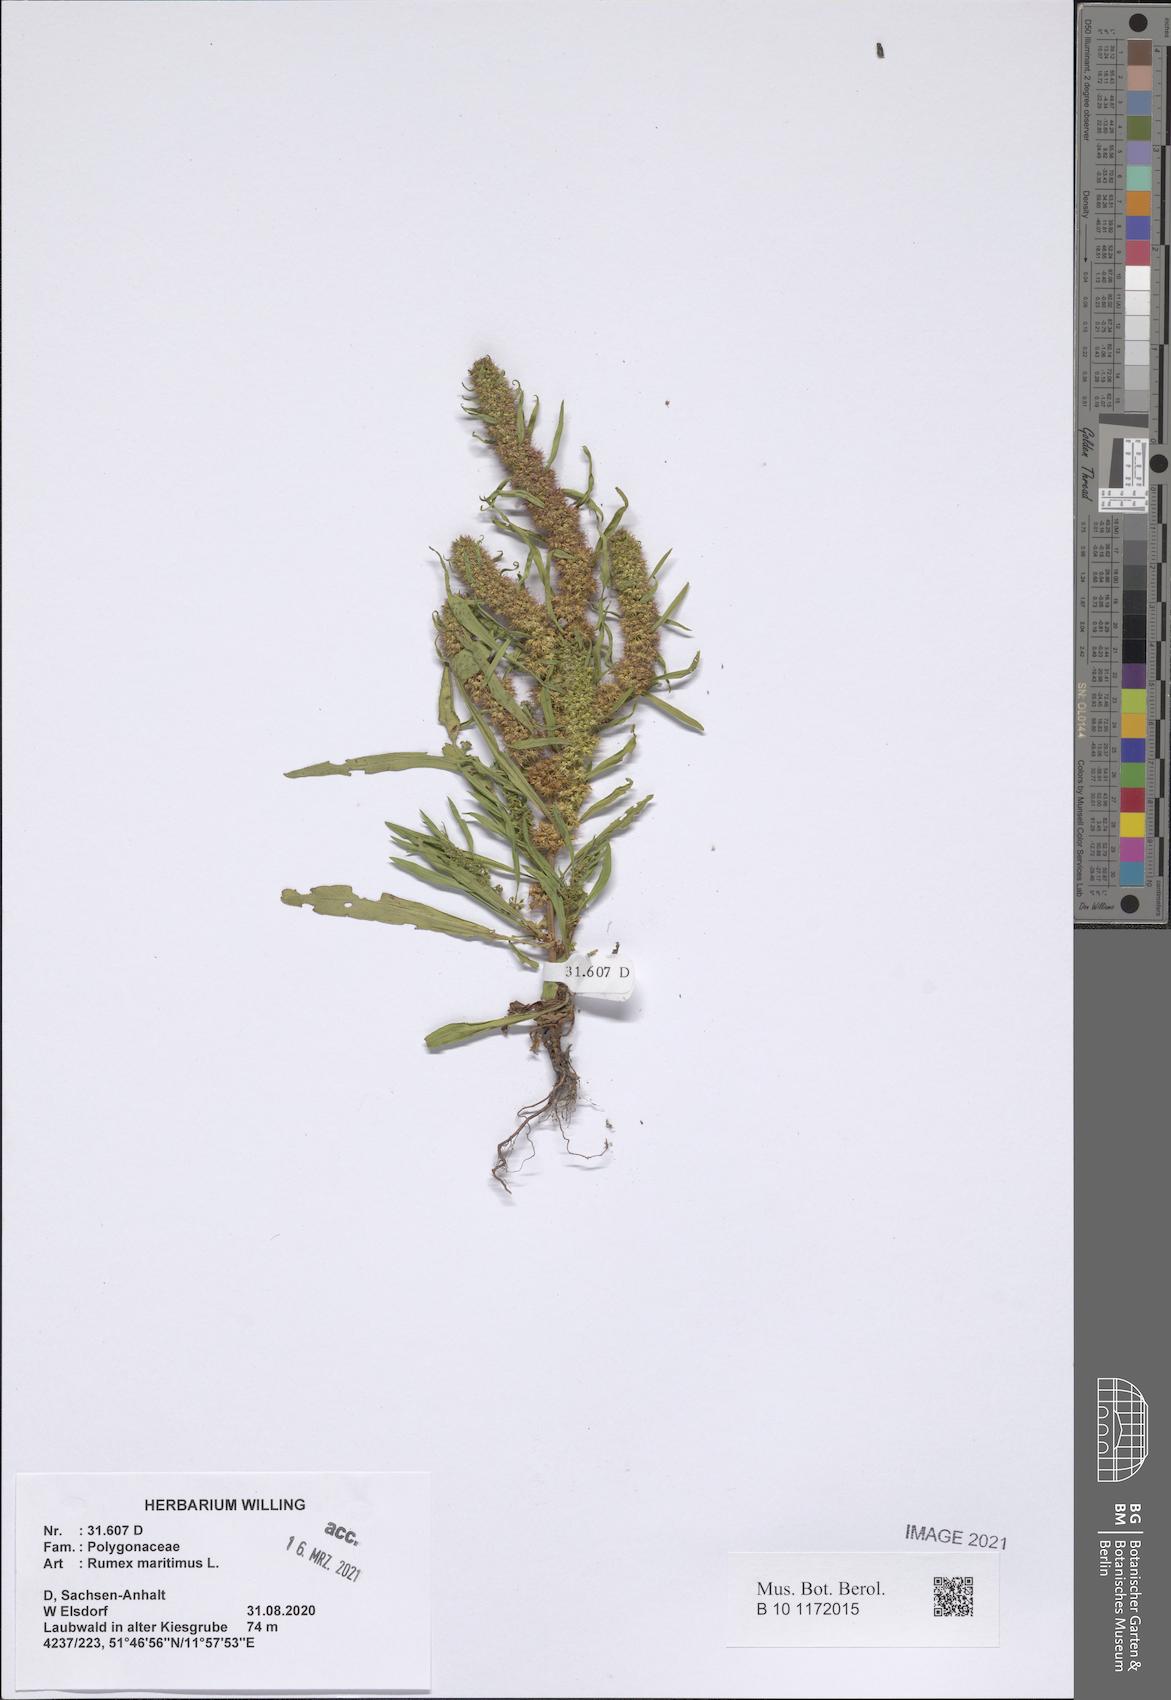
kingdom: Plantae
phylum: Tracheophyta
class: Magnoliopsida
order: Caryophyllales
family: Polygonaceae
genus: Rumex
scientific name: Rumex maritimus
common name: Golden dock
